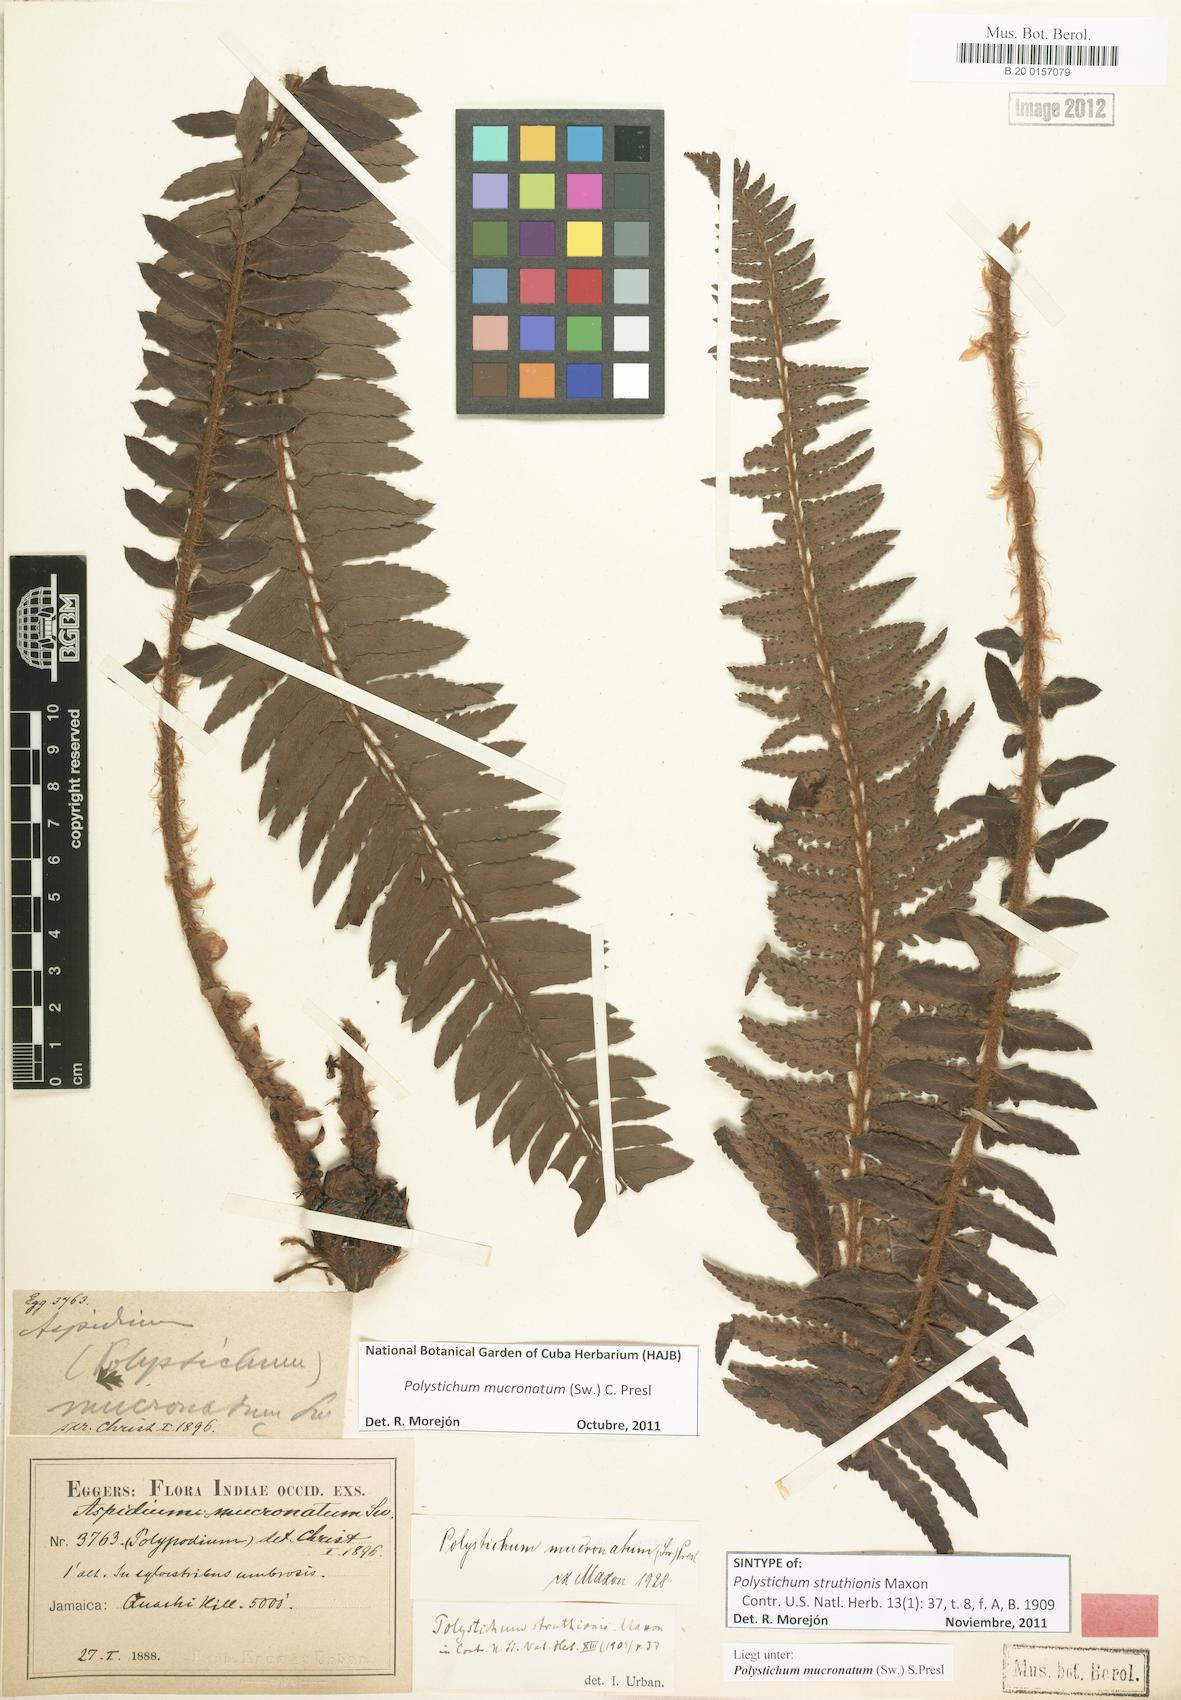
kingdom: Plantae
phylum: Tracheophyta
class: Polypodiopsida
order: Polypodiales
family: Dryopteridaceae
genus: Polystichum
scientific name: Polystichum triangulum
